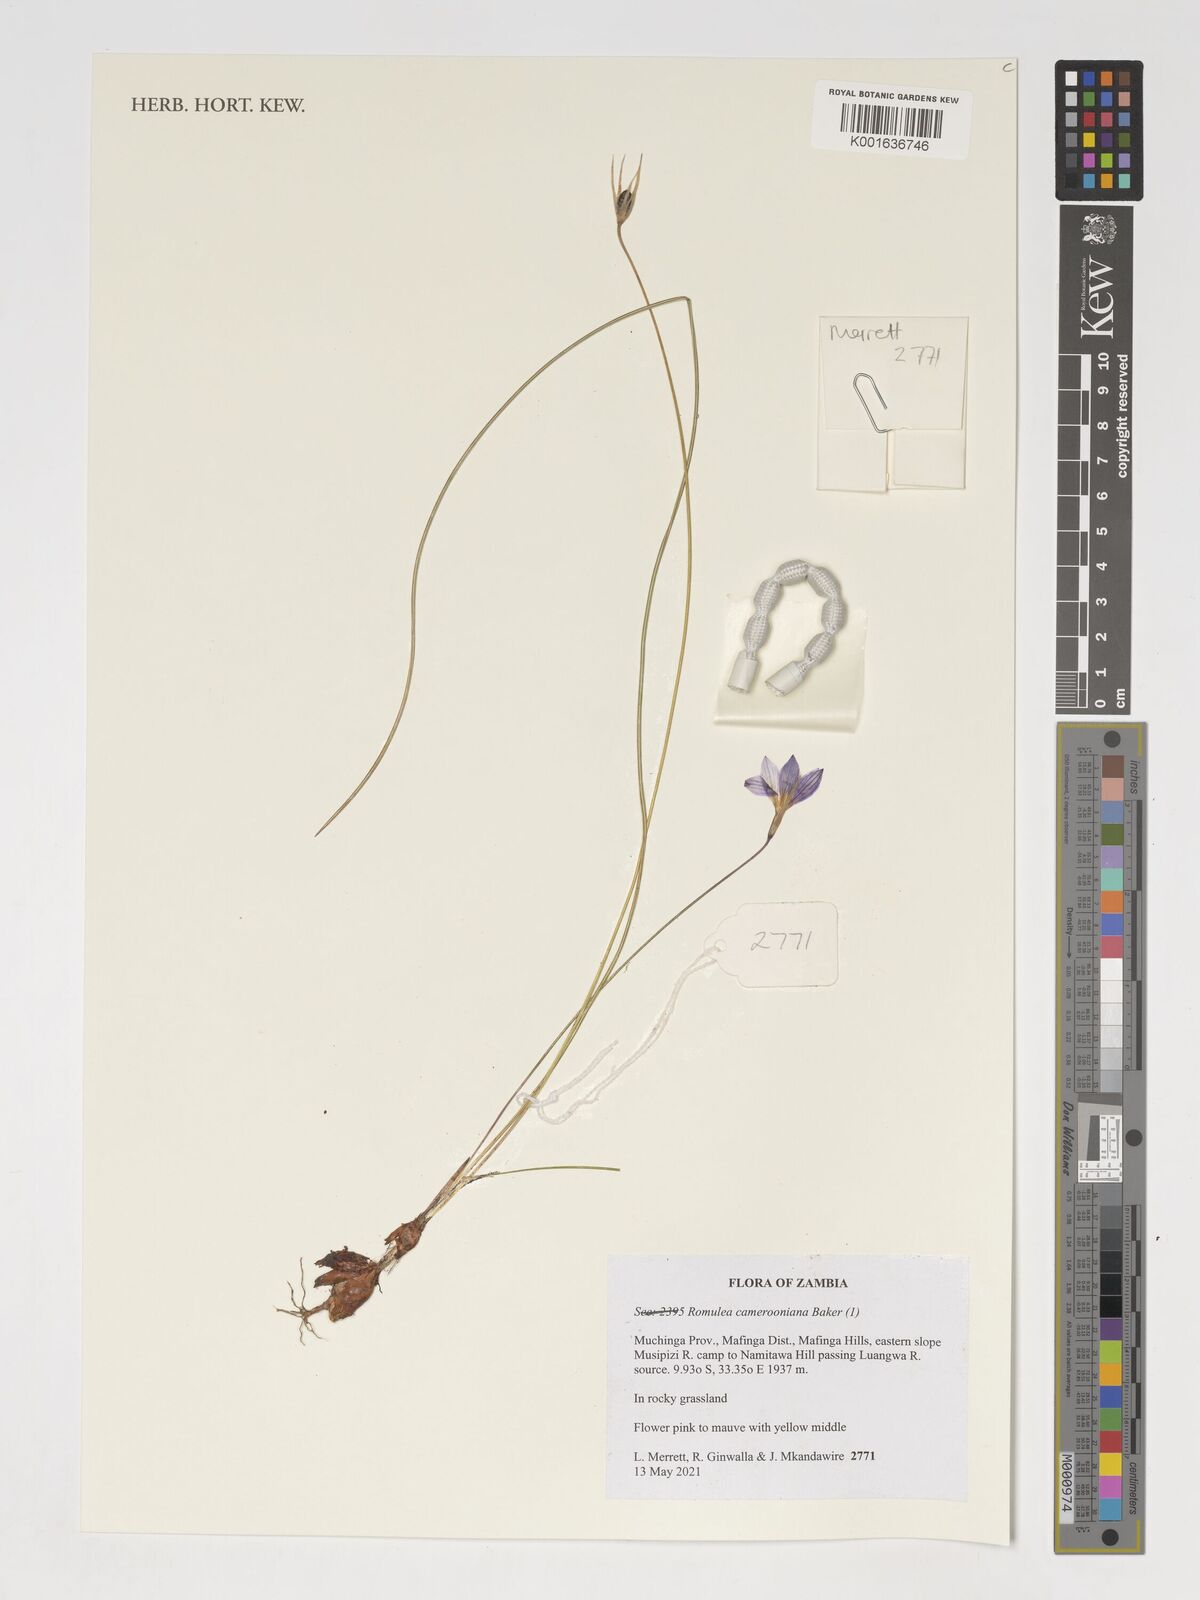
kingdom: Plantae
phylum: Tracheophyta
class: Liliopsida
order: Asparagales
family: Iridaceae
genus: Romulea
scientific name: Romulea camerooniana
